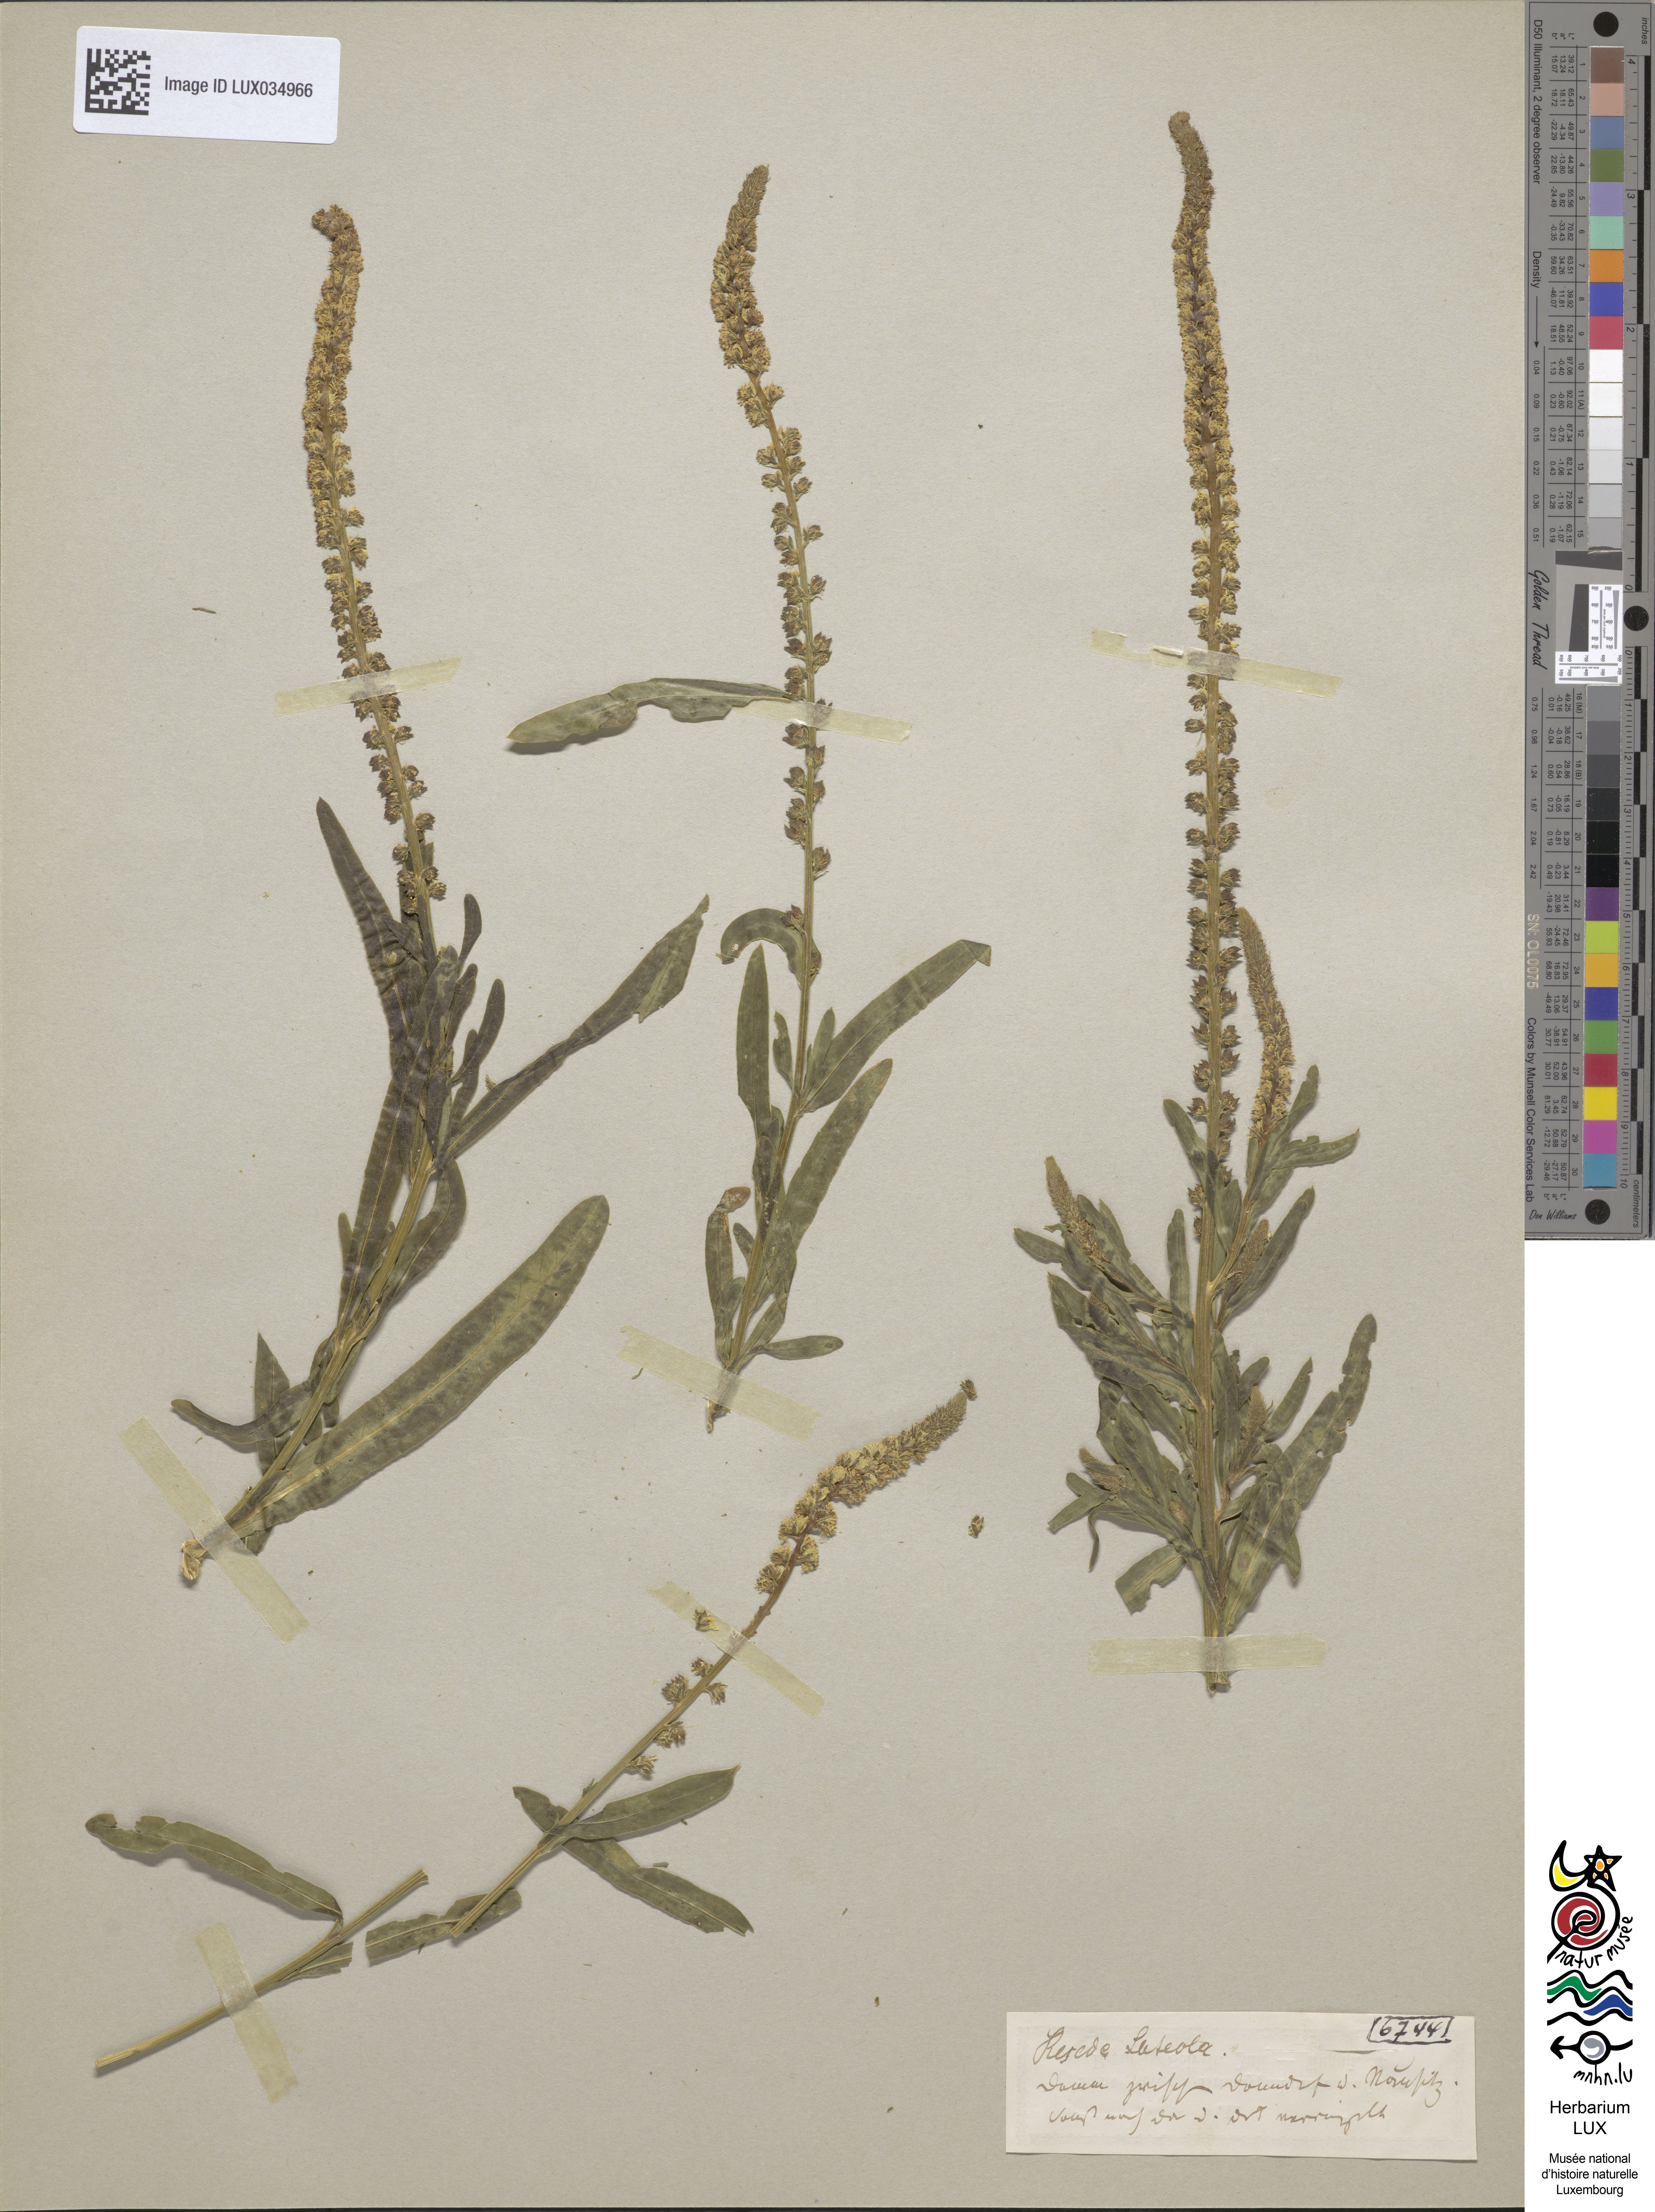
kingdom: Plantae
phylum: Tracheophyta
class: Magnoliopsida
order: Brassicales
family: Resedaceae
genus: Reseda
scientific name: Reseda luteola
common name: Weld
